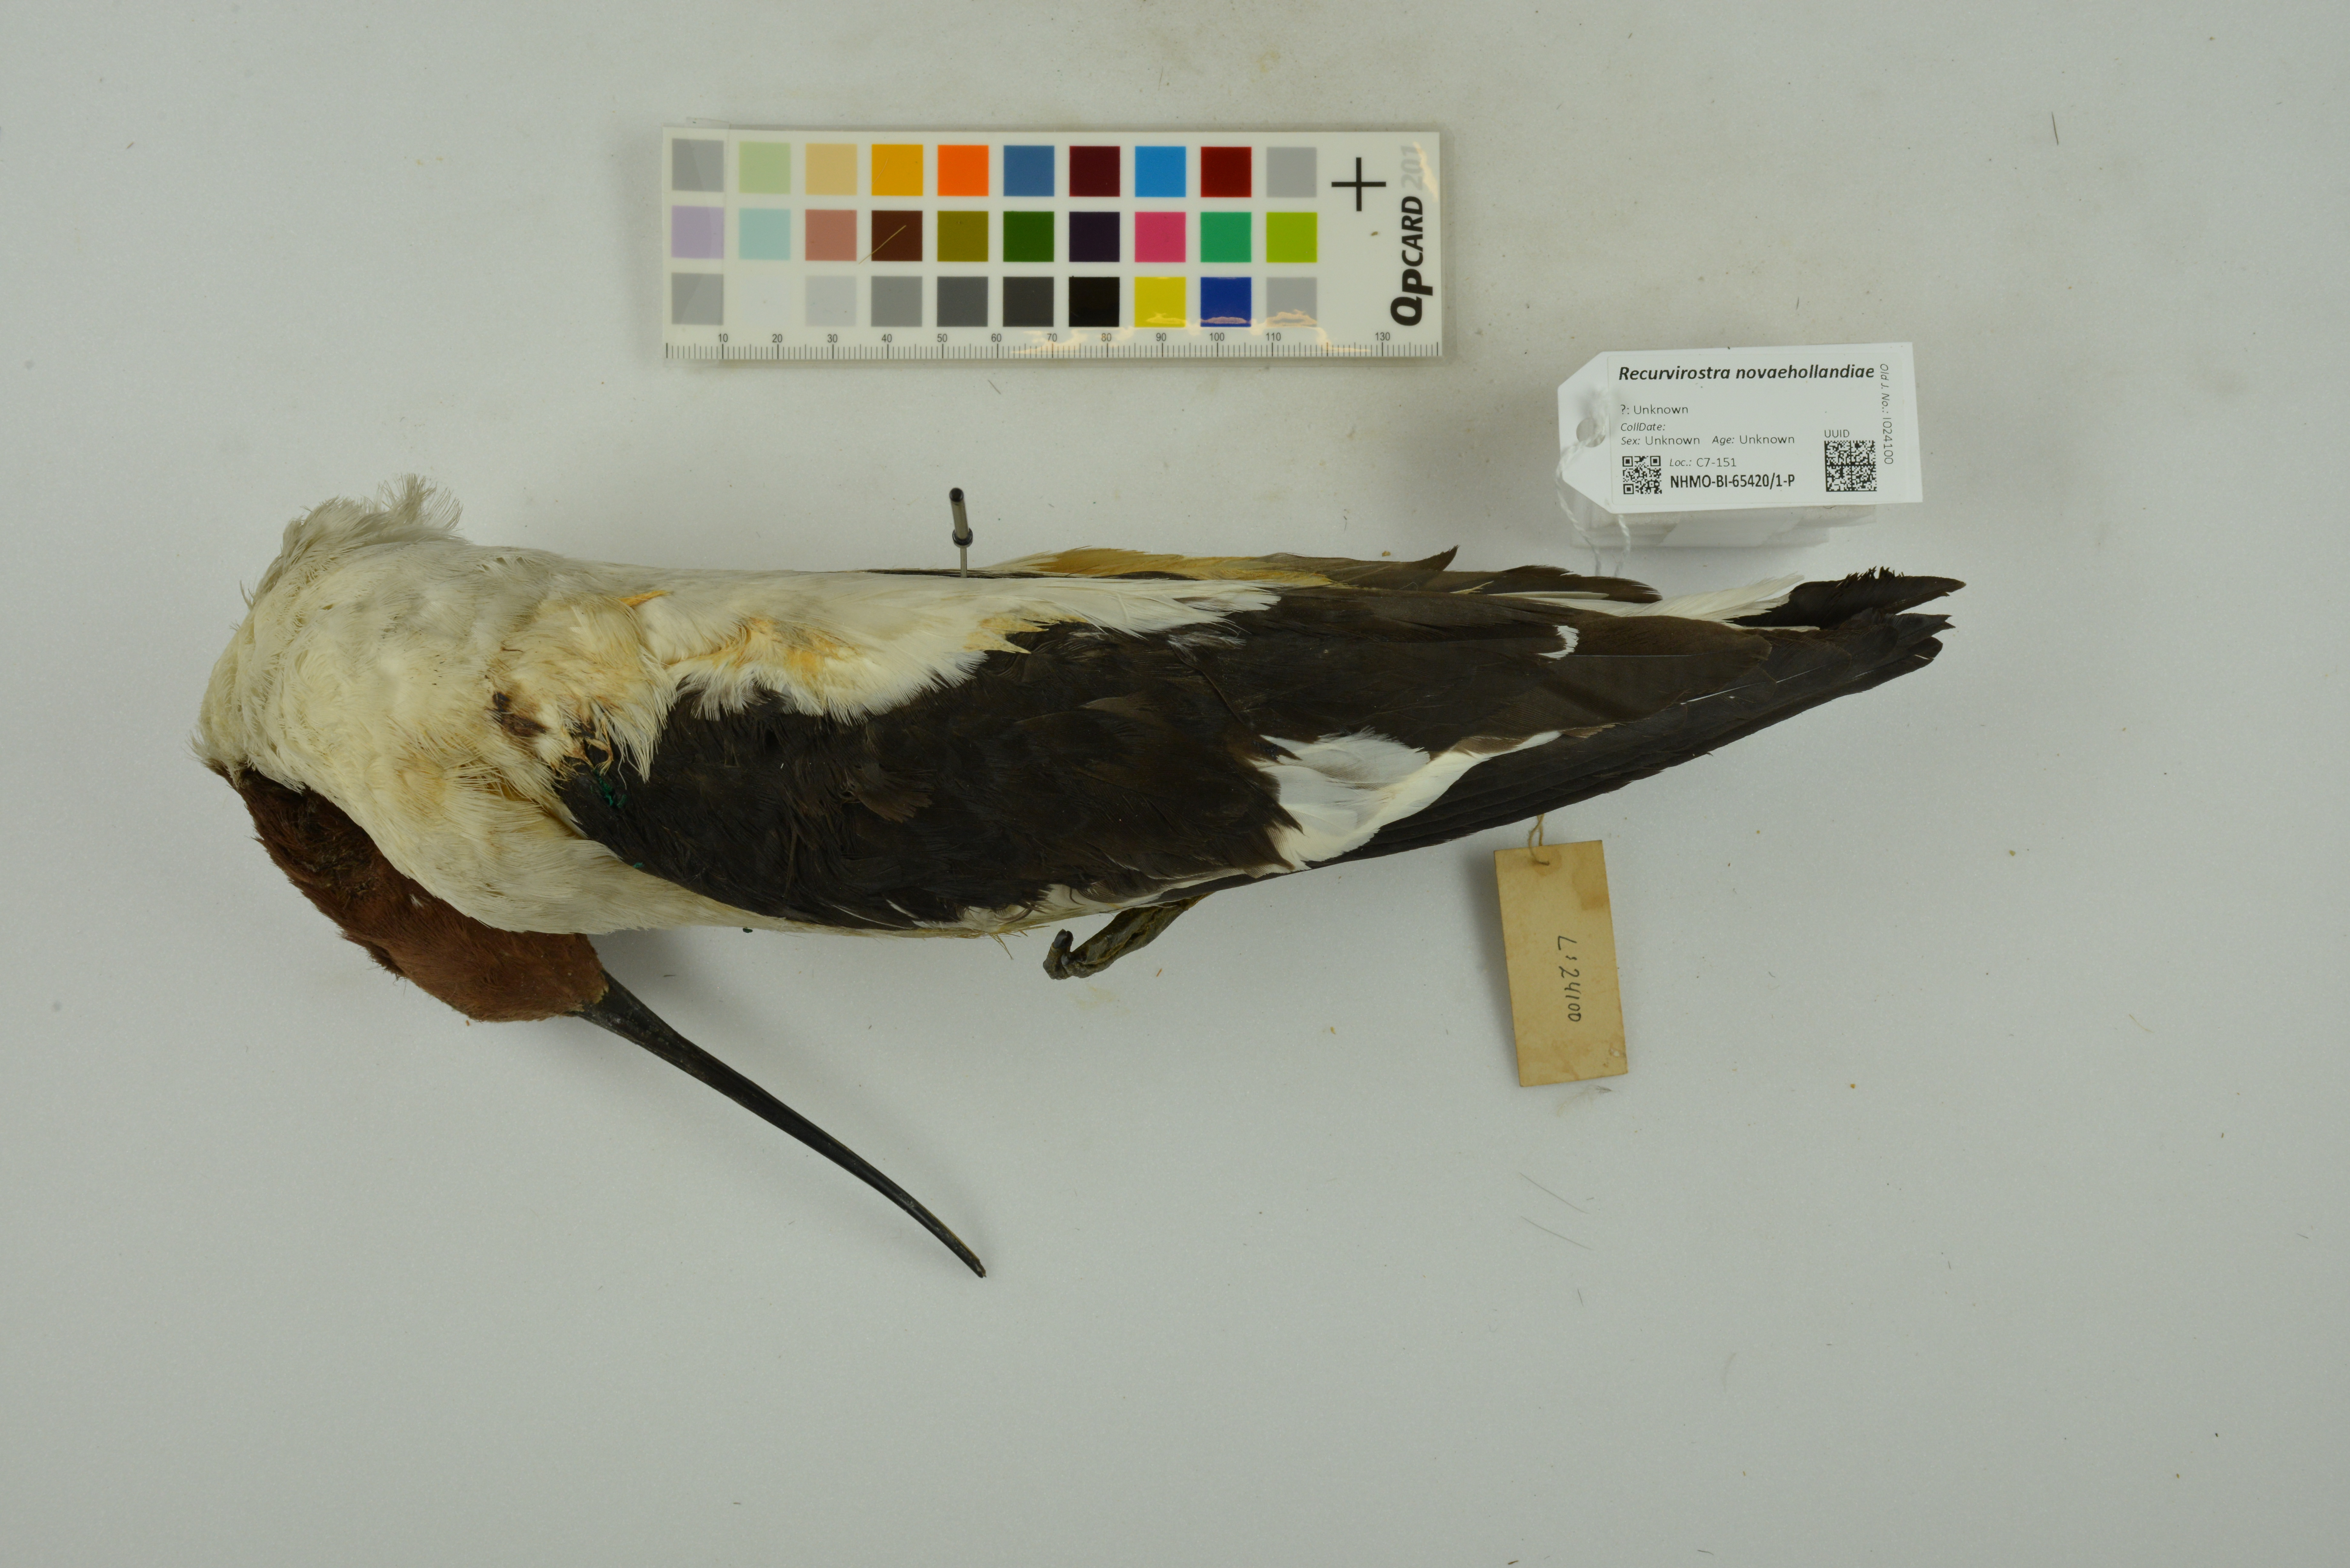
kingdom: Animalia
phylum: Chordata
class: Aves
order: Charadriiformes
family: Recurvirostridae
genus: Recurvirostra
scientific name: Recurvirostra novaehollandiae
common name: Red-necked avocet
